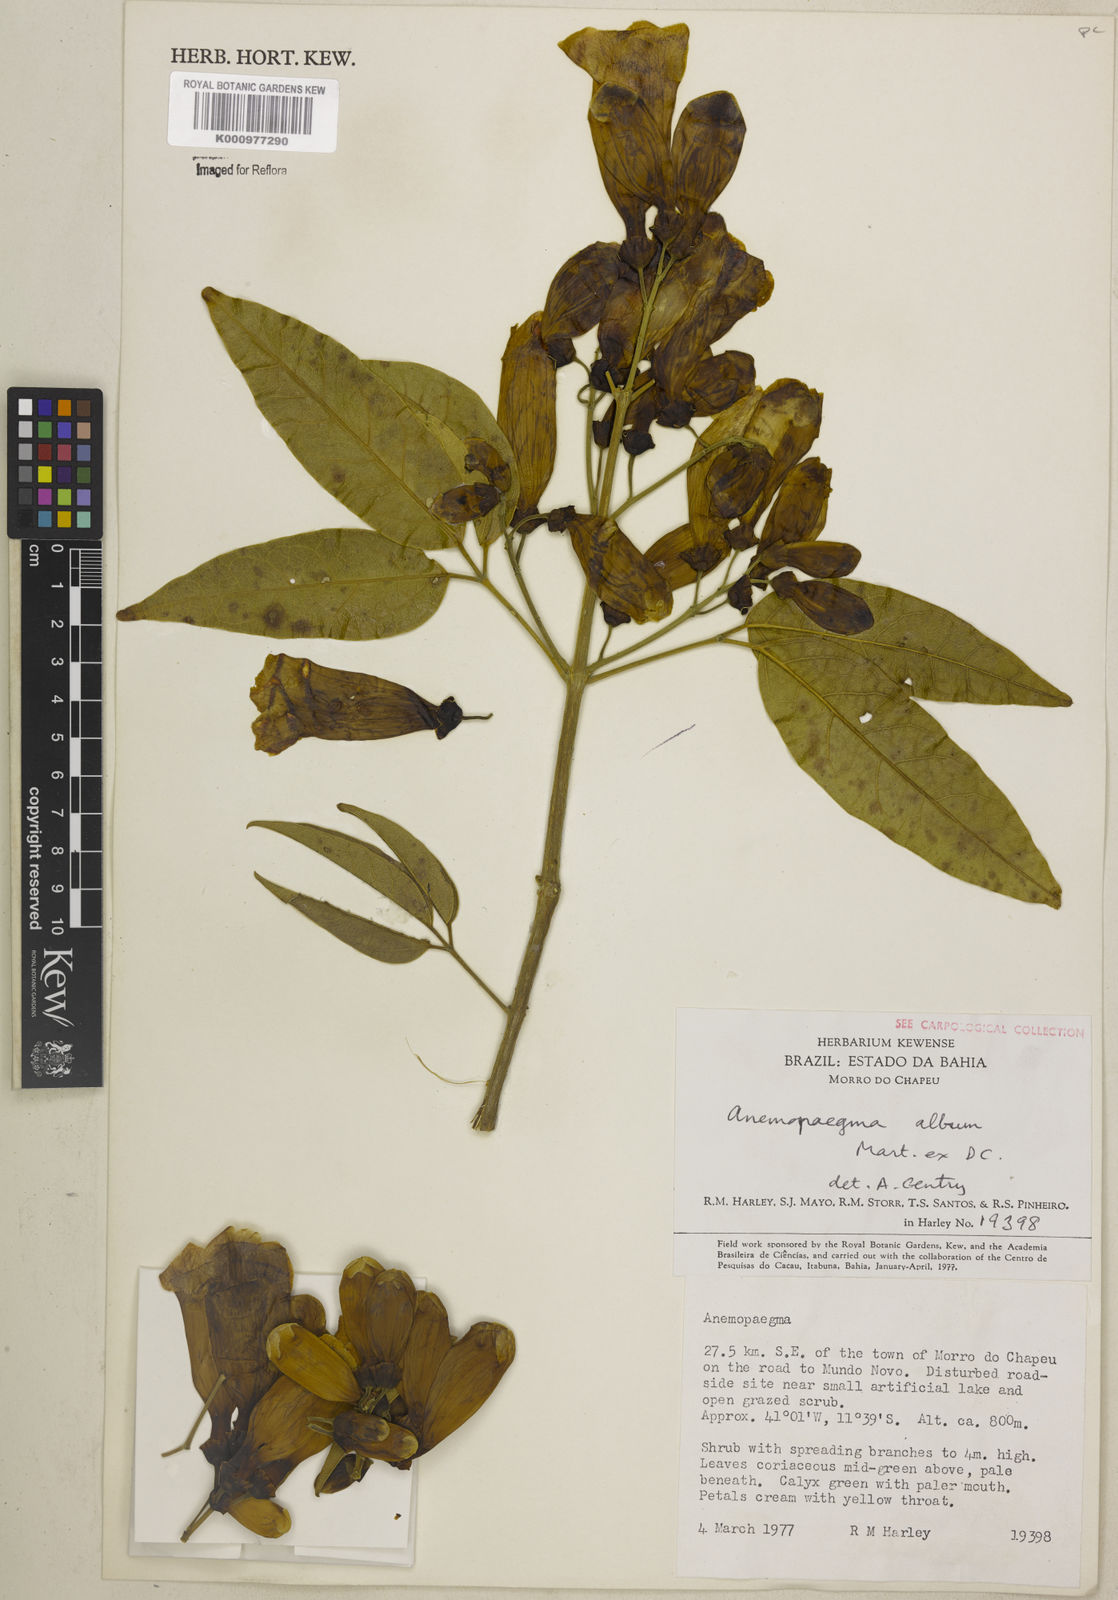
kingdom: Plantae
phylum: Tracheophyta
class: Magnoliopsida
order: Lamiales
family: Bignoniaceae
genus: Anemopaegma
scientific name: Anemopaegma album
